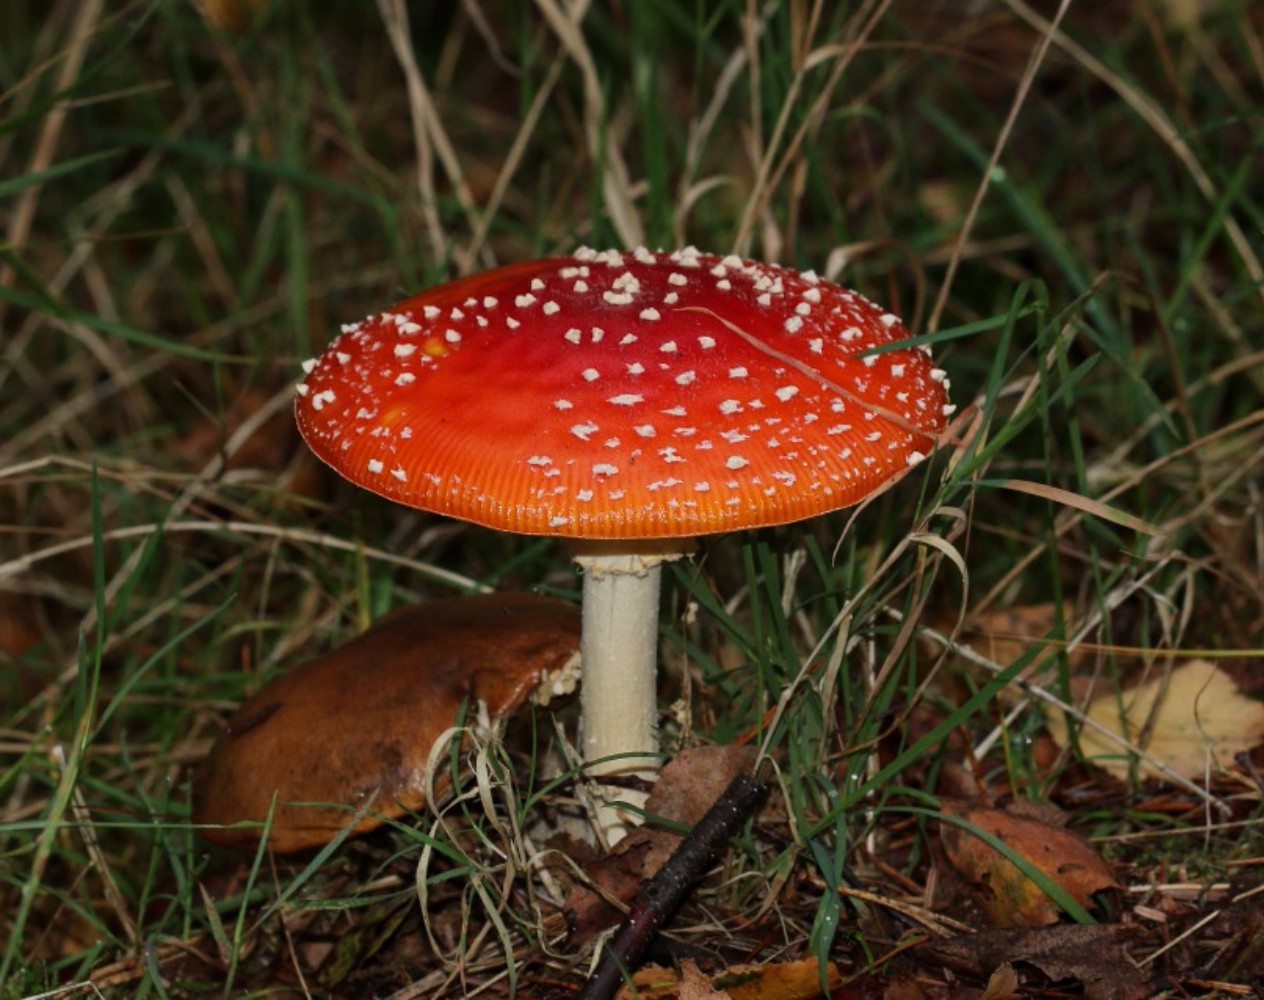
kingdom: Fungi
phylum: Basidiomycota
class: Agaricomycetes
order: Agaricales
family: Amanitaceae
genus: Amanita
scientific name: Amanita muscaria
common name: rød fluesvamp
